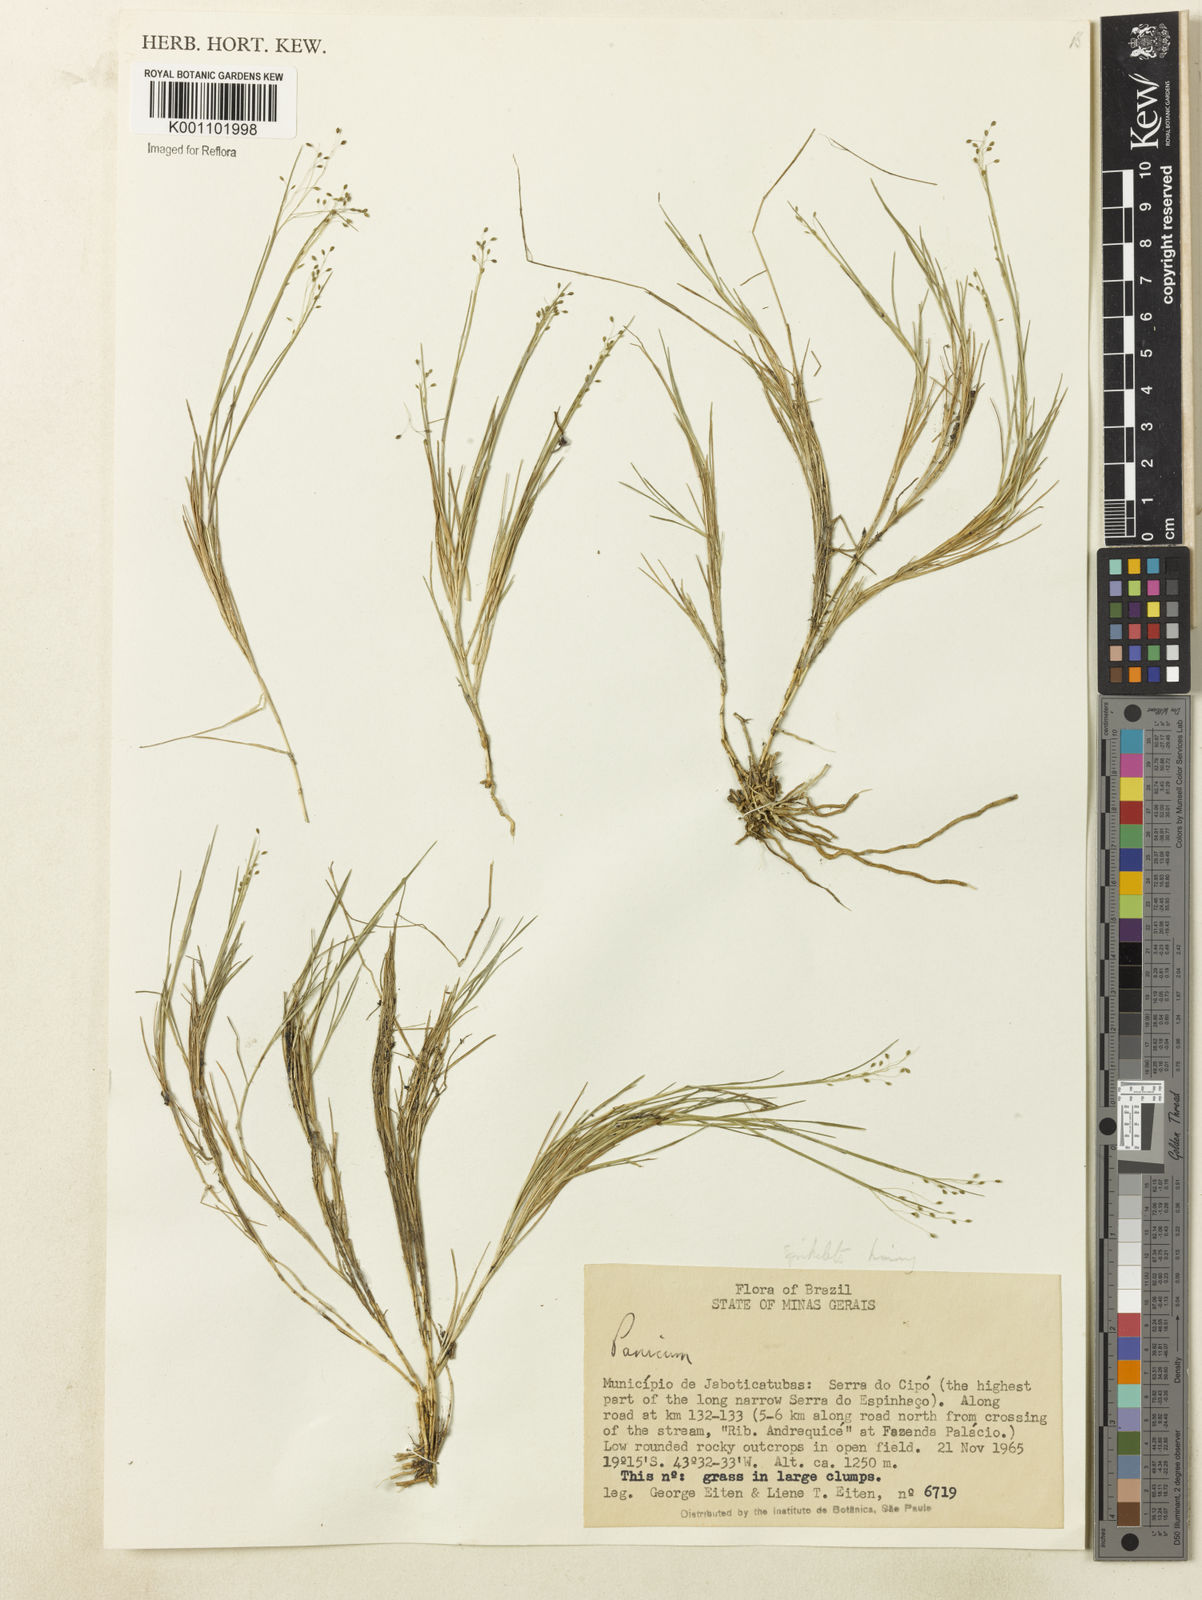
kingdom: Plantae
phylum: Tracheophyta
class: Liliopsida
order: Poales
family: Poaceae
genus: Panicum
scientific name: Panicum rupestre
